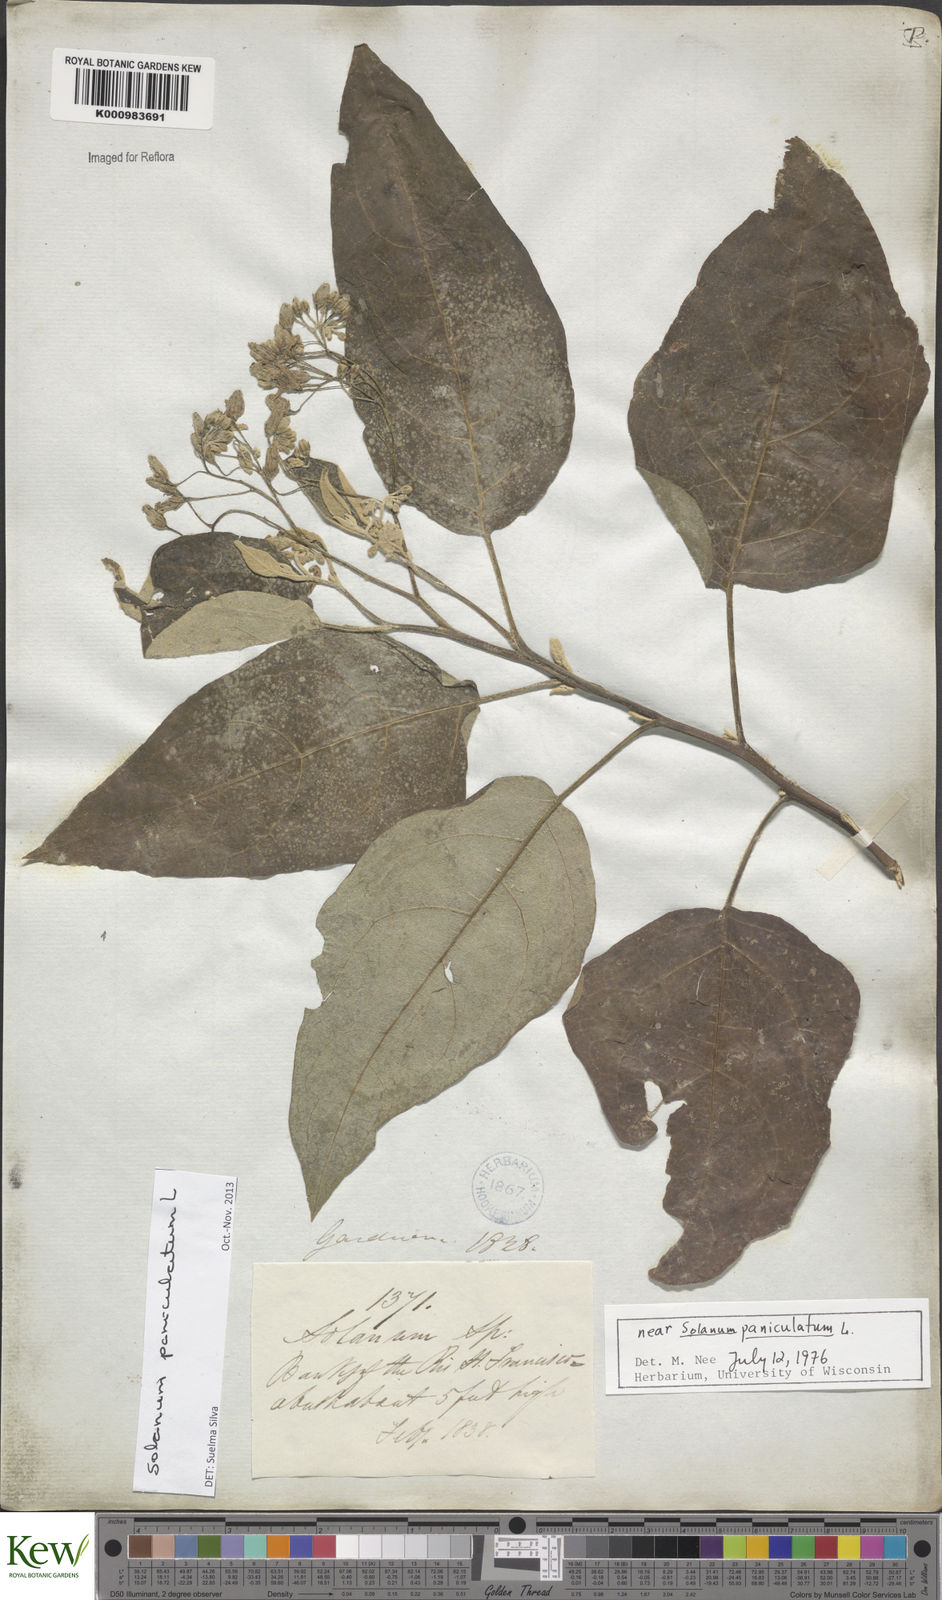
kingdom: Plantae
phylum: Tracheophyta
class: Magnoliopsida
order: Solanales
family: Solanaceae
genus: Solanum
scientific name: Solanum paniculatum
